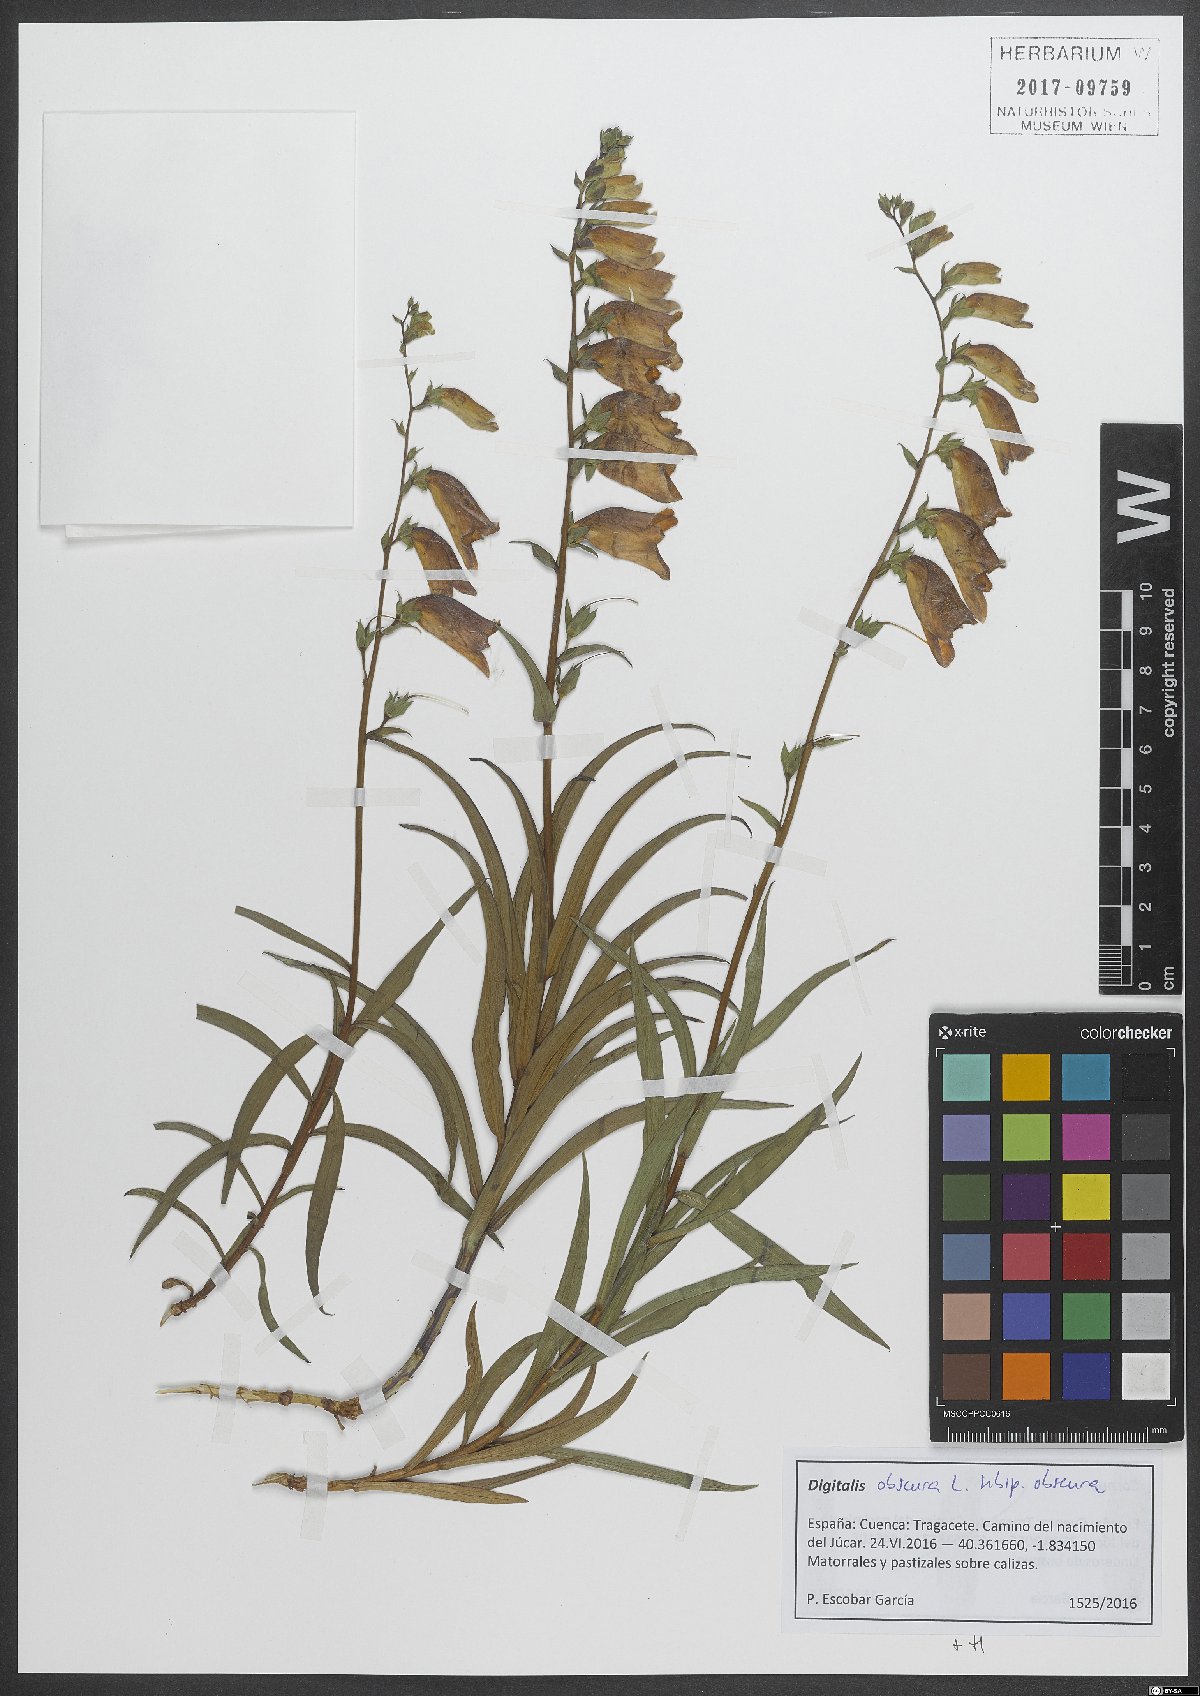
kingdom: Plantae
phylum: Tracheophyta
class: Magnoliopsida
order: Lamiales
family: Plantaginaceae
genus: Digitalis
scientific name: Digitalis obscura
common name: Willow-leaf foxglove
